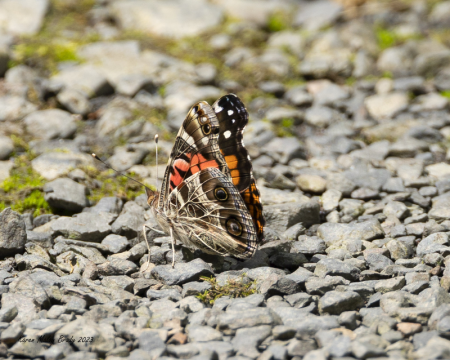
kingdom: Animalia
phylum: Arthropoda
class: Insecta
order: Lepidoptera
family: Nymphalidae
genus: Vanessa
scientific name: Vanessa virginiensis
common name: American Lady
